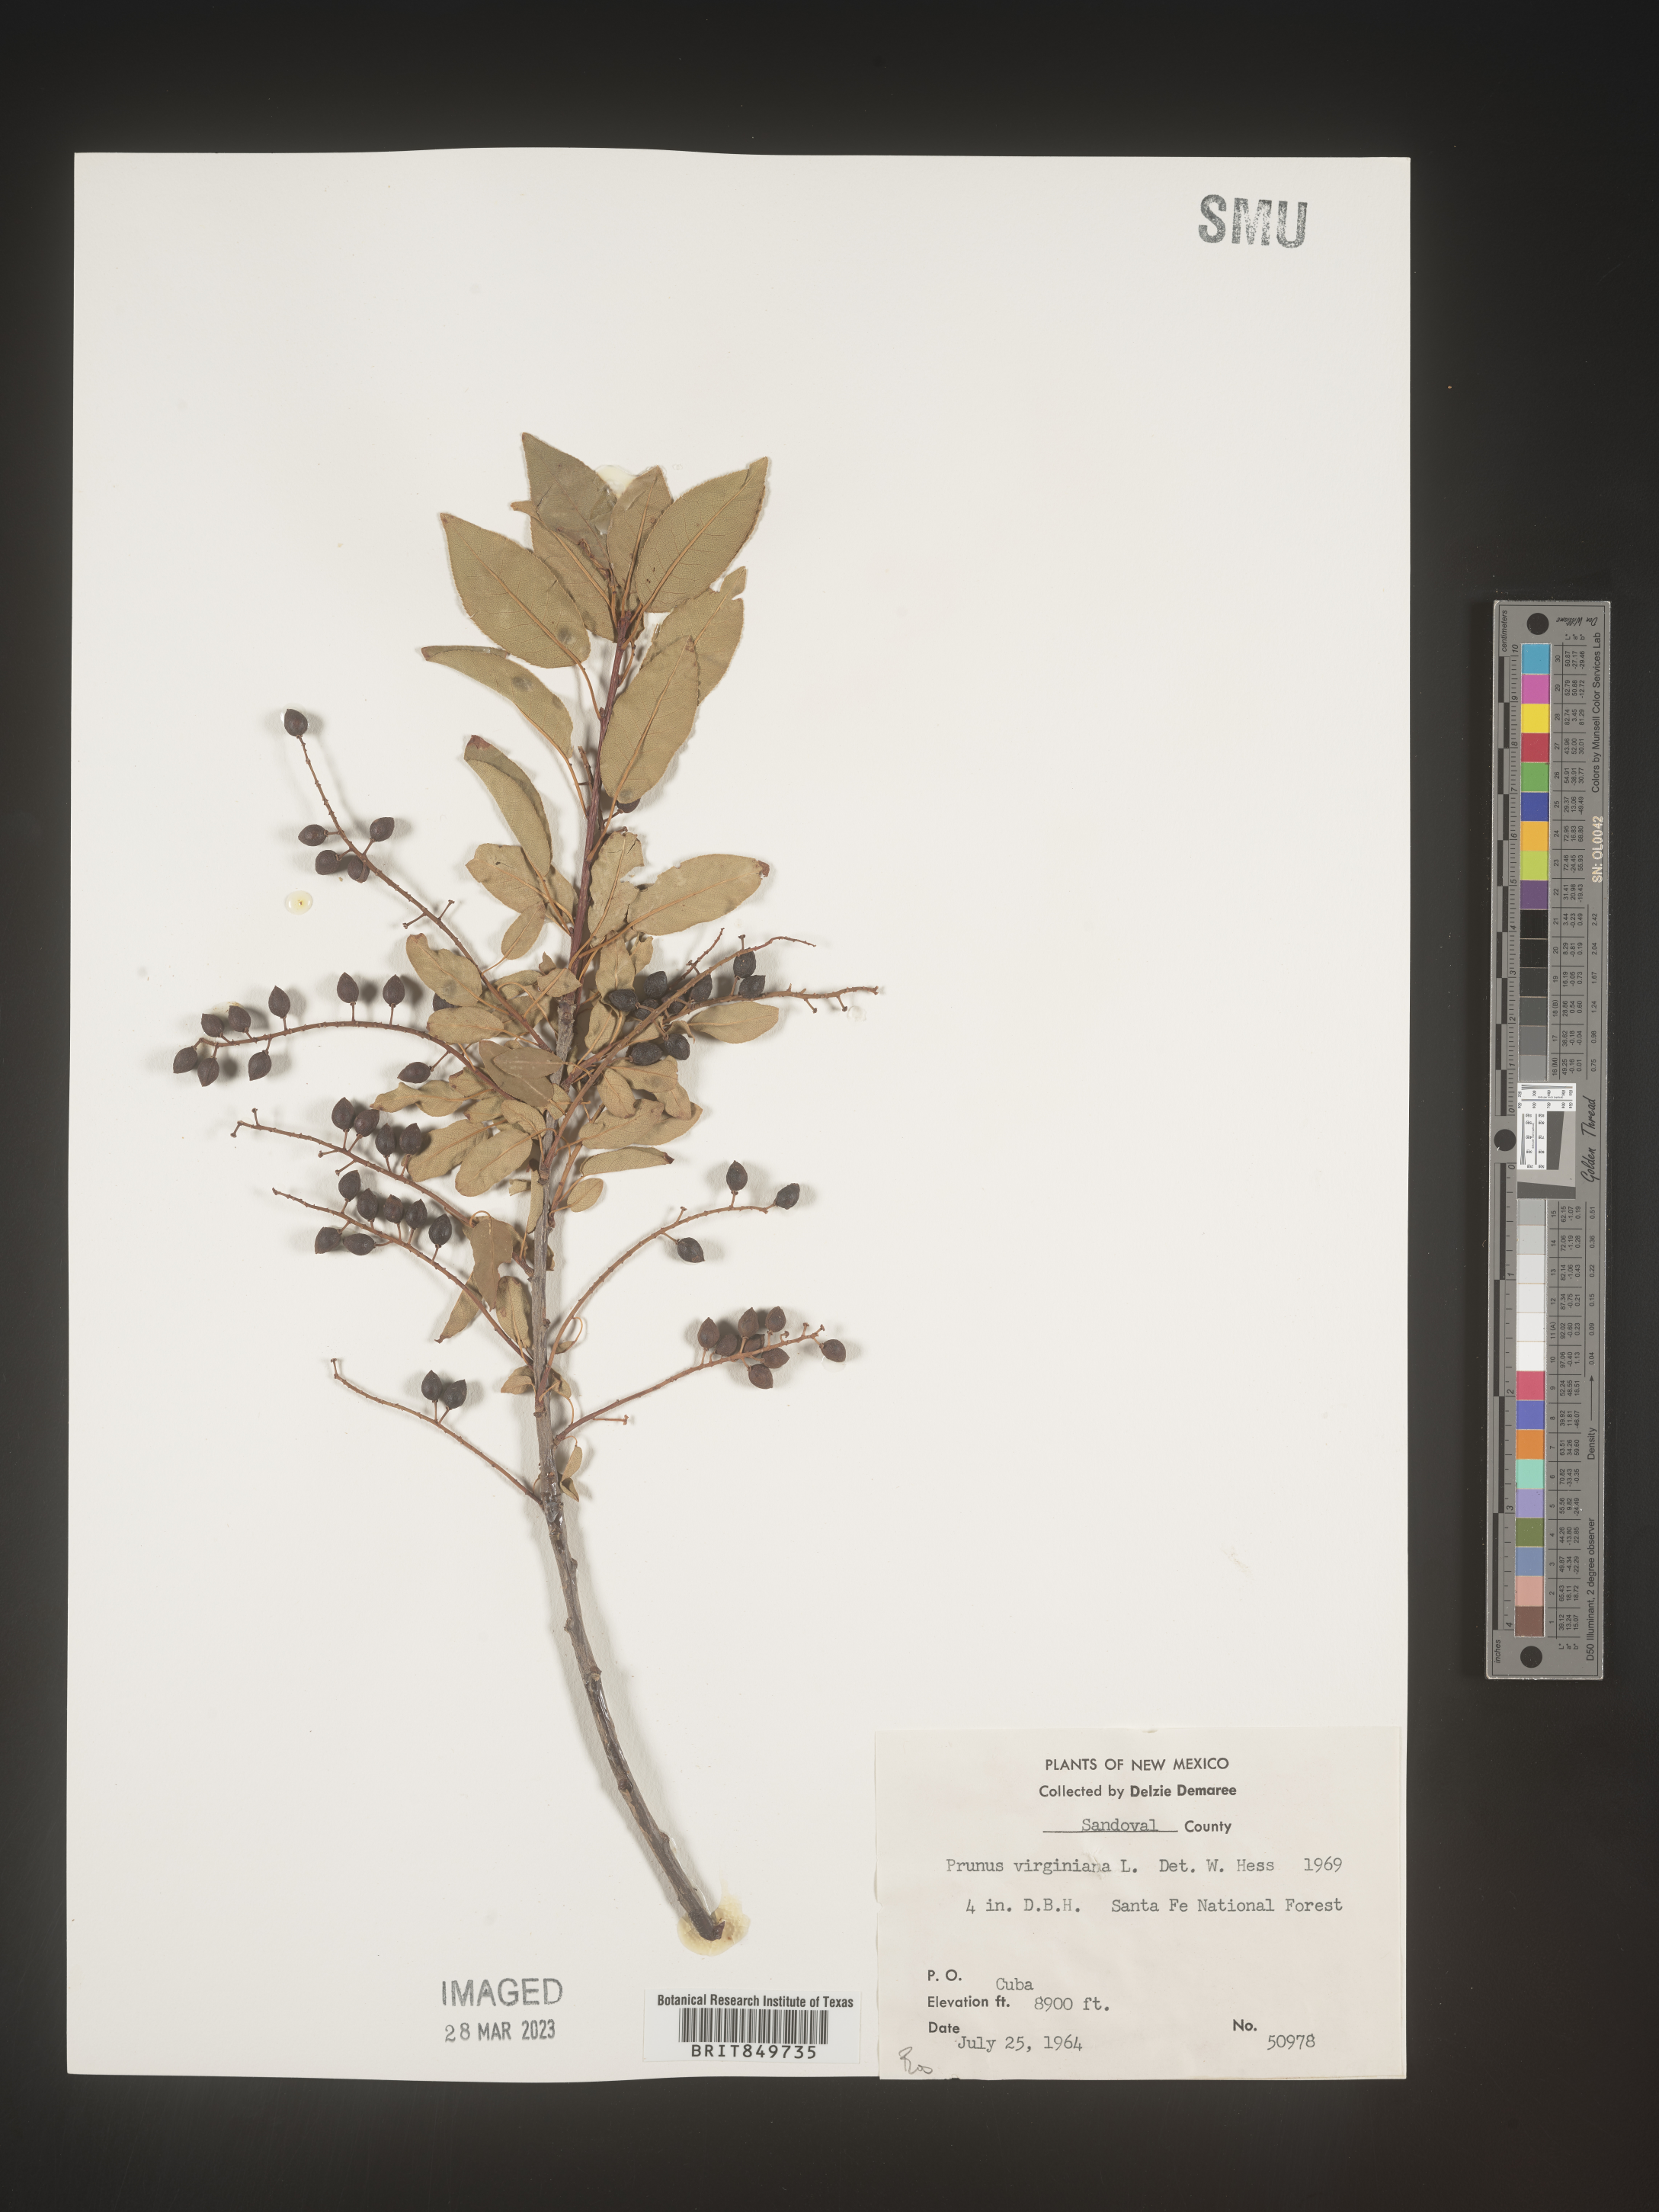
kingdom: Plantae
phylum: Tracheophyta
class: Magnoliopsida
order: Rosales
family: Rosaceae
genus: Prunus
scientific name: Prunus virginiana
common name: Chokecherry
